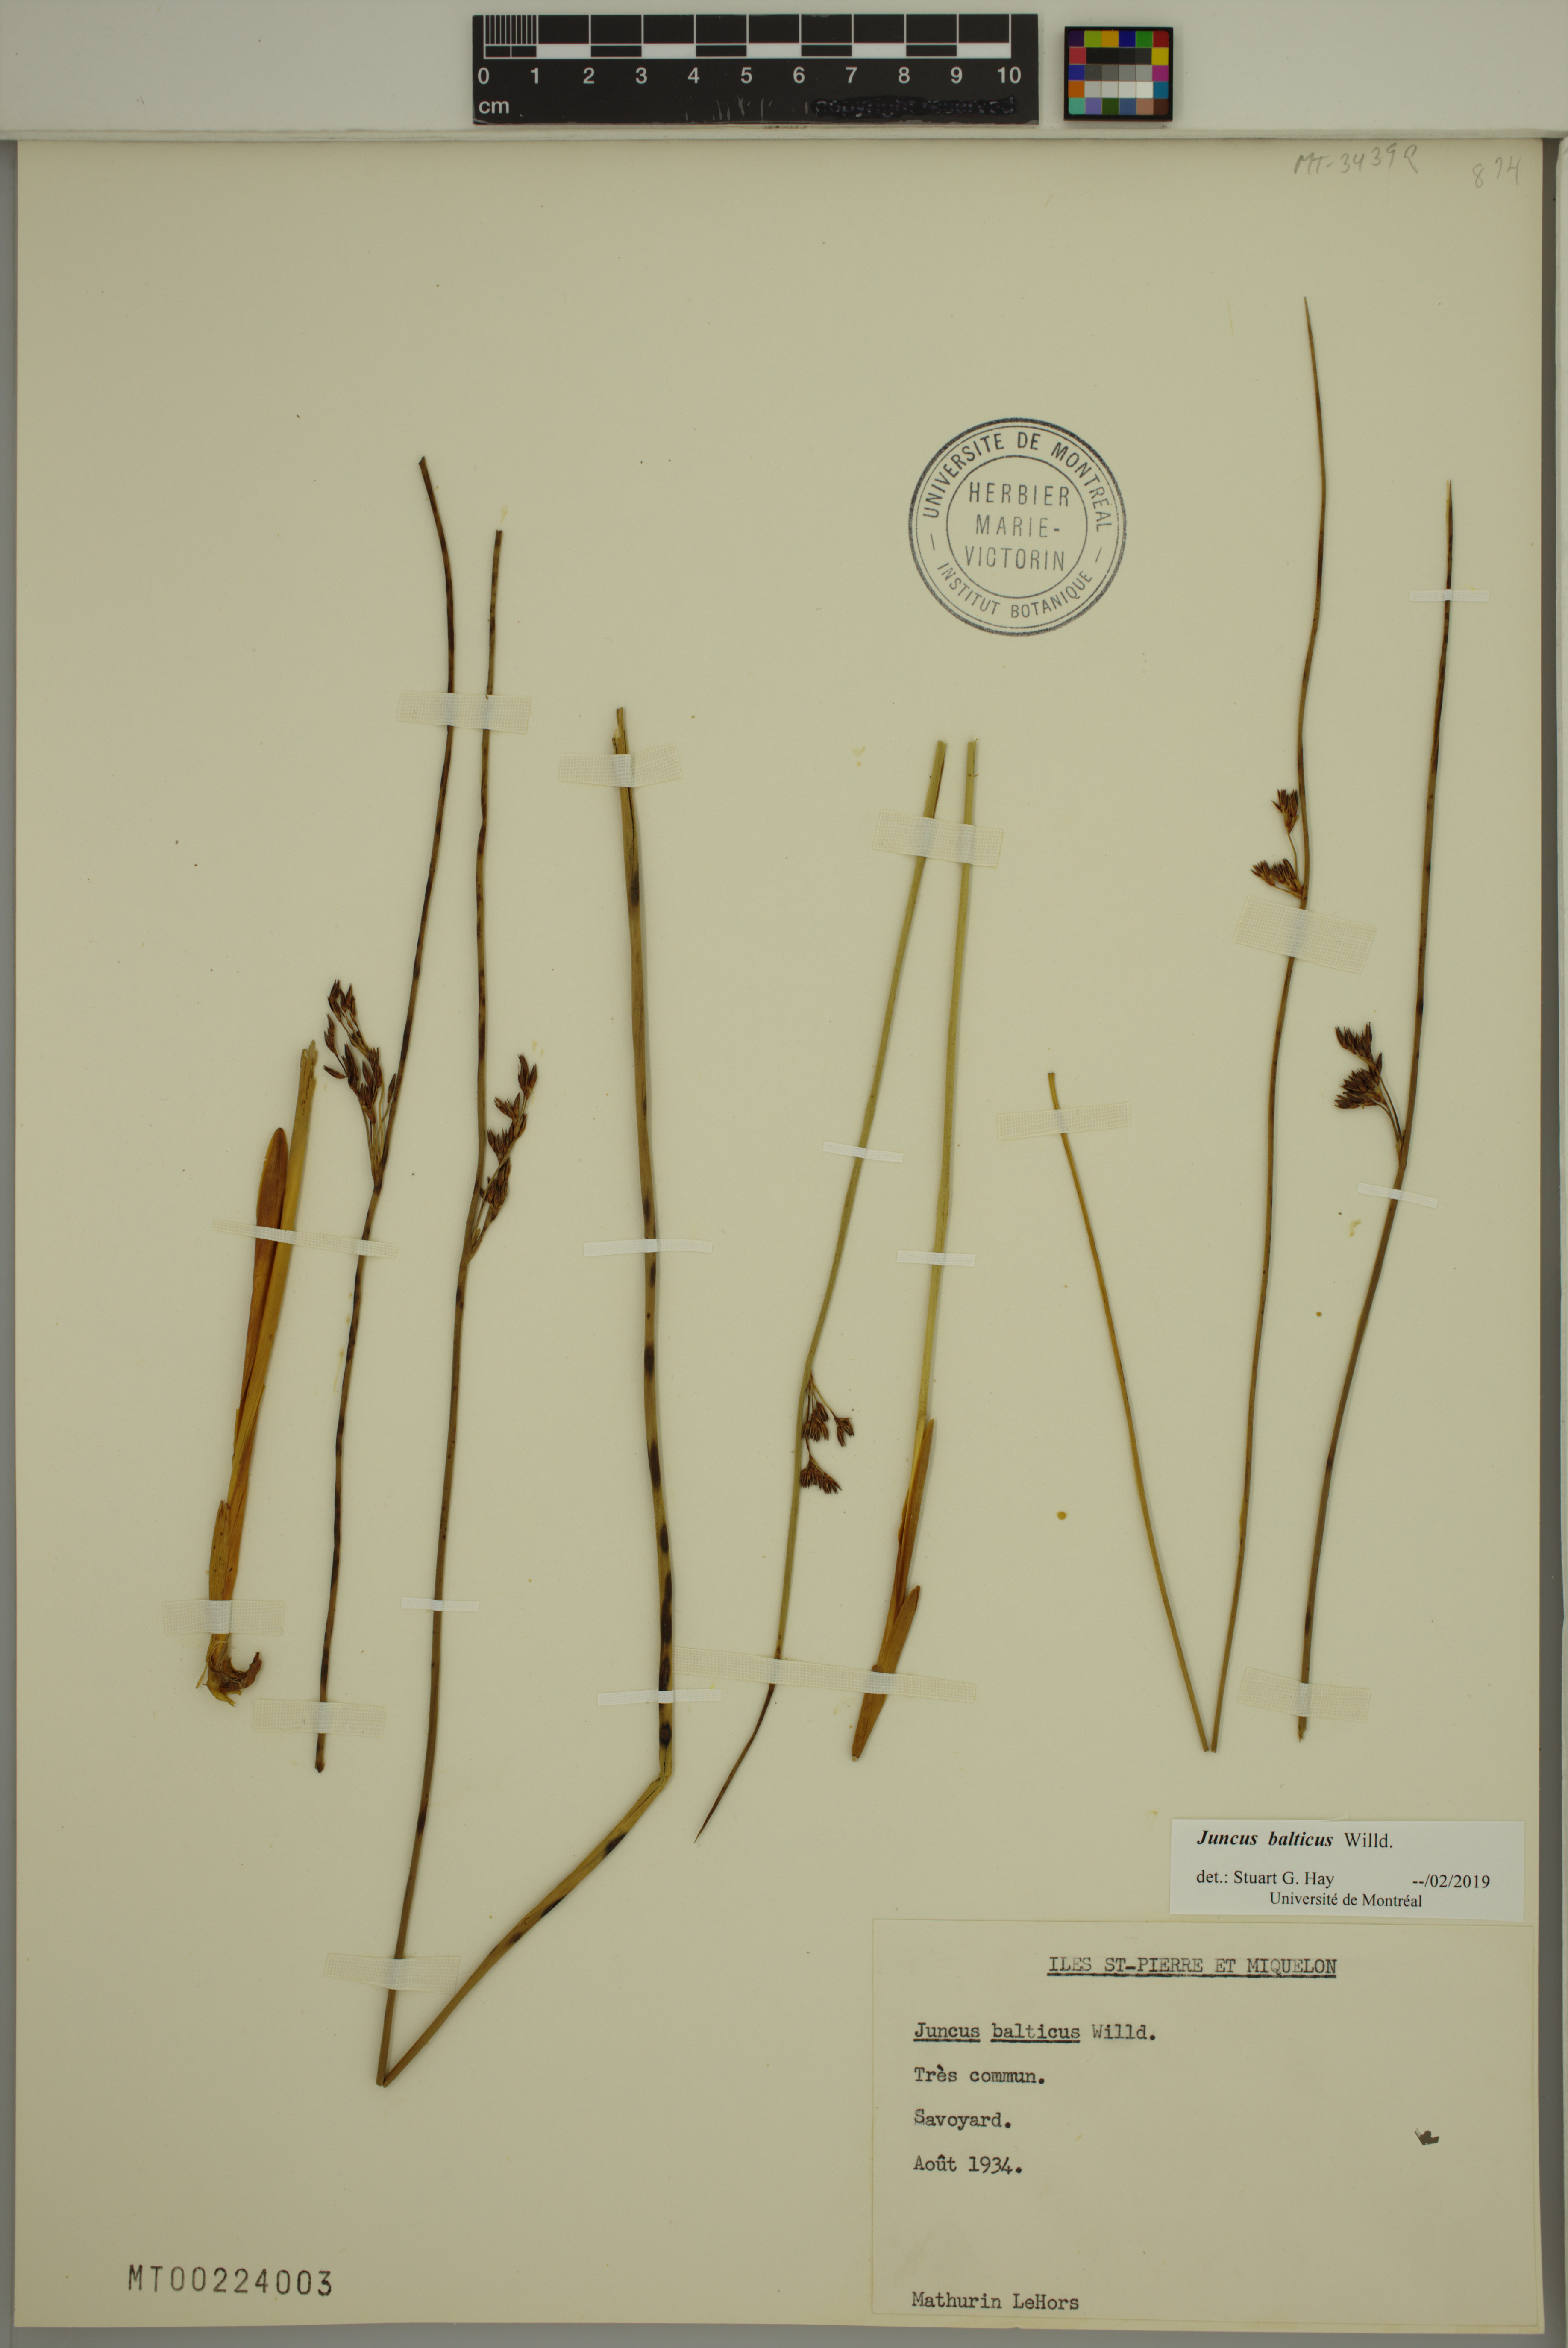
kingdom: Plantae
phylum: Tracheophyta
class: Liliopsida
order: Poales
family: Juncaceae
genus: Juncus
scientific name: Juncus balticus
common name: Baltic rush
